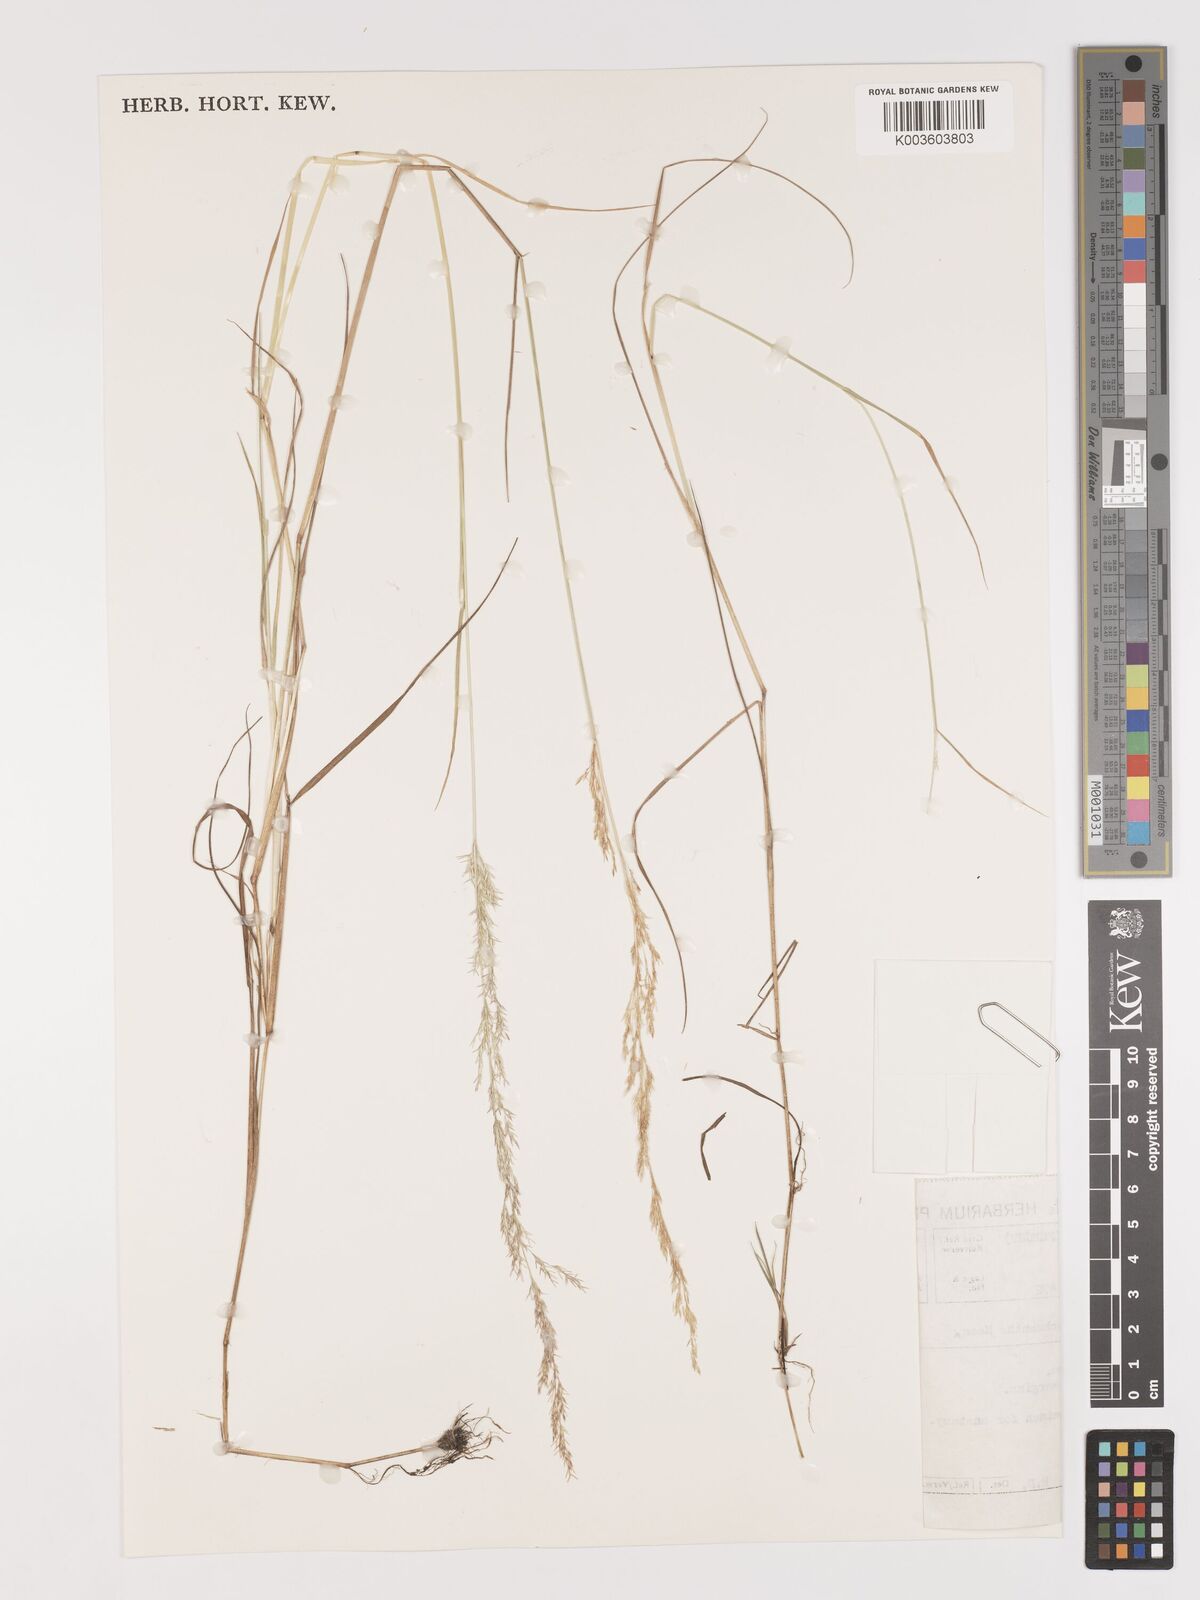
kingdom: Plantae
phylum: Tracheophyta
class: Liliopsida
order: Poales
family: Poaceae
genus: Lachnagrostis
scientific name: Lachnagrostis lachnantha
